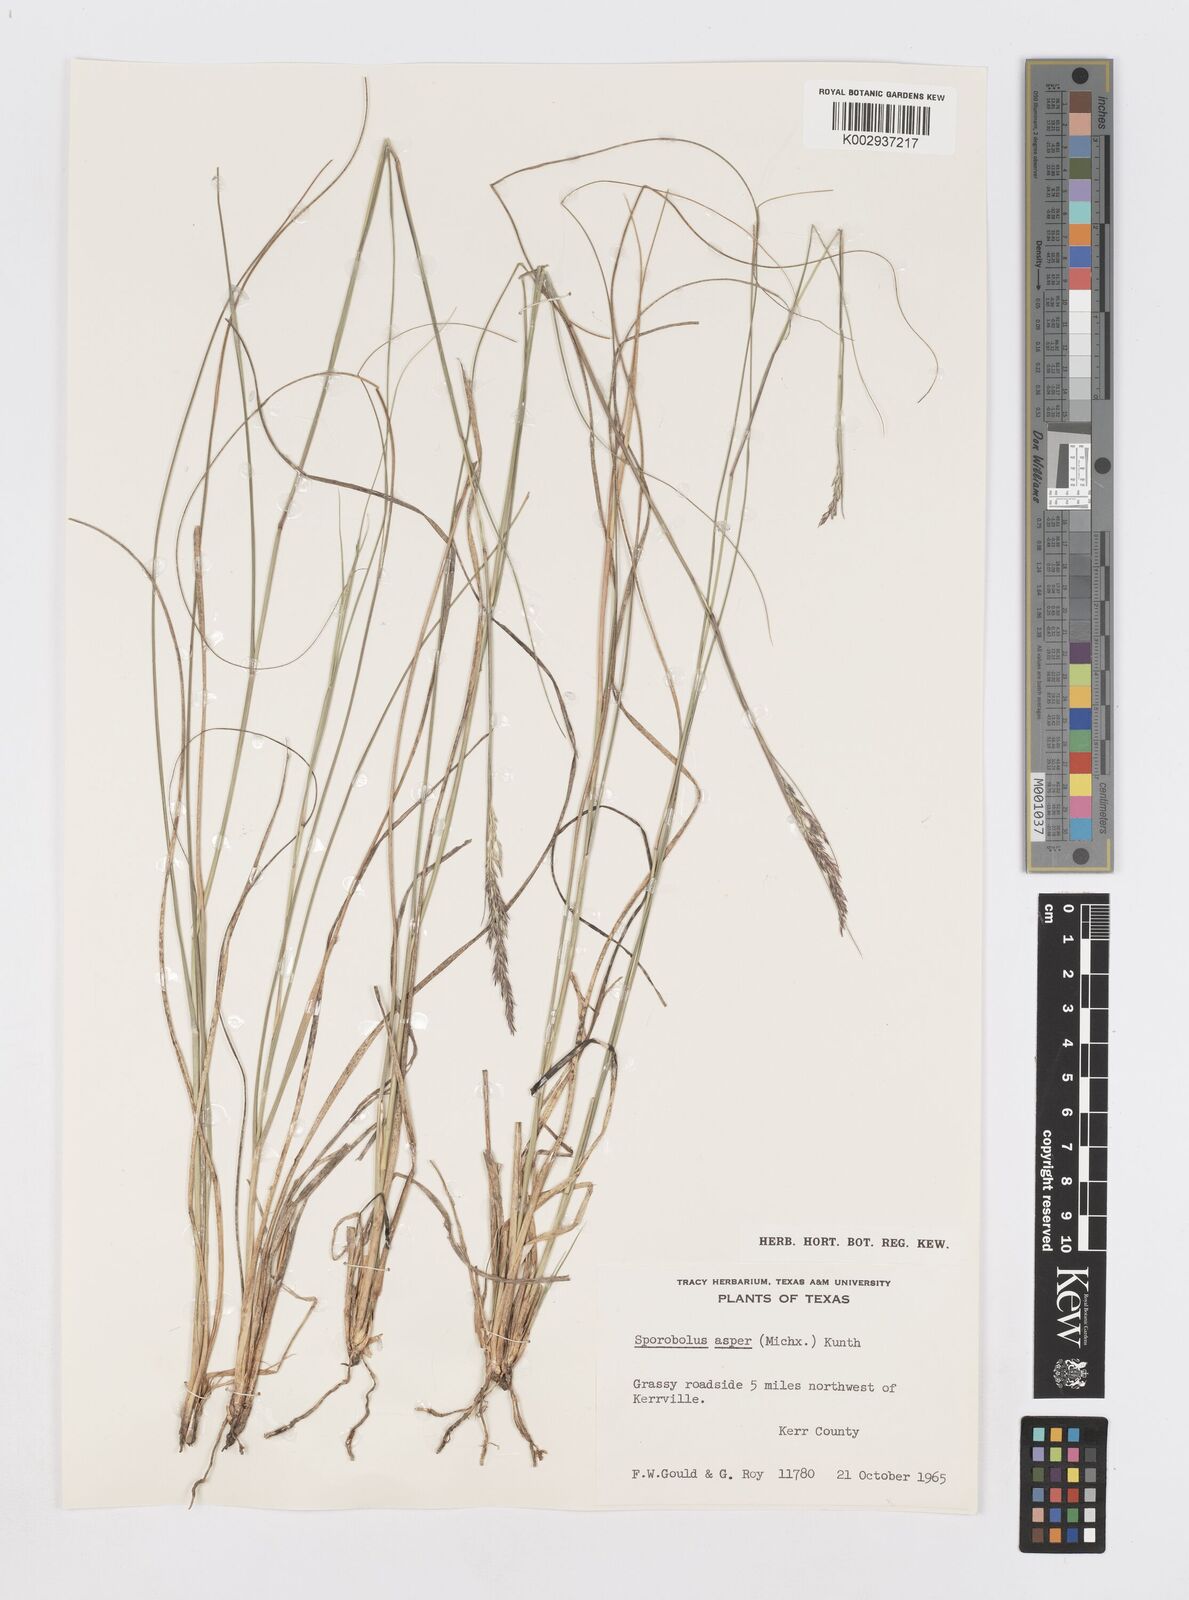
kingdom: Plantae
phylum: Tracheophyta
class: Liliopsida
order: Poales
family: Poaceae
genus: Sporobolus
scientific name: Sporobolus compositus
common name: Rough dropseed
